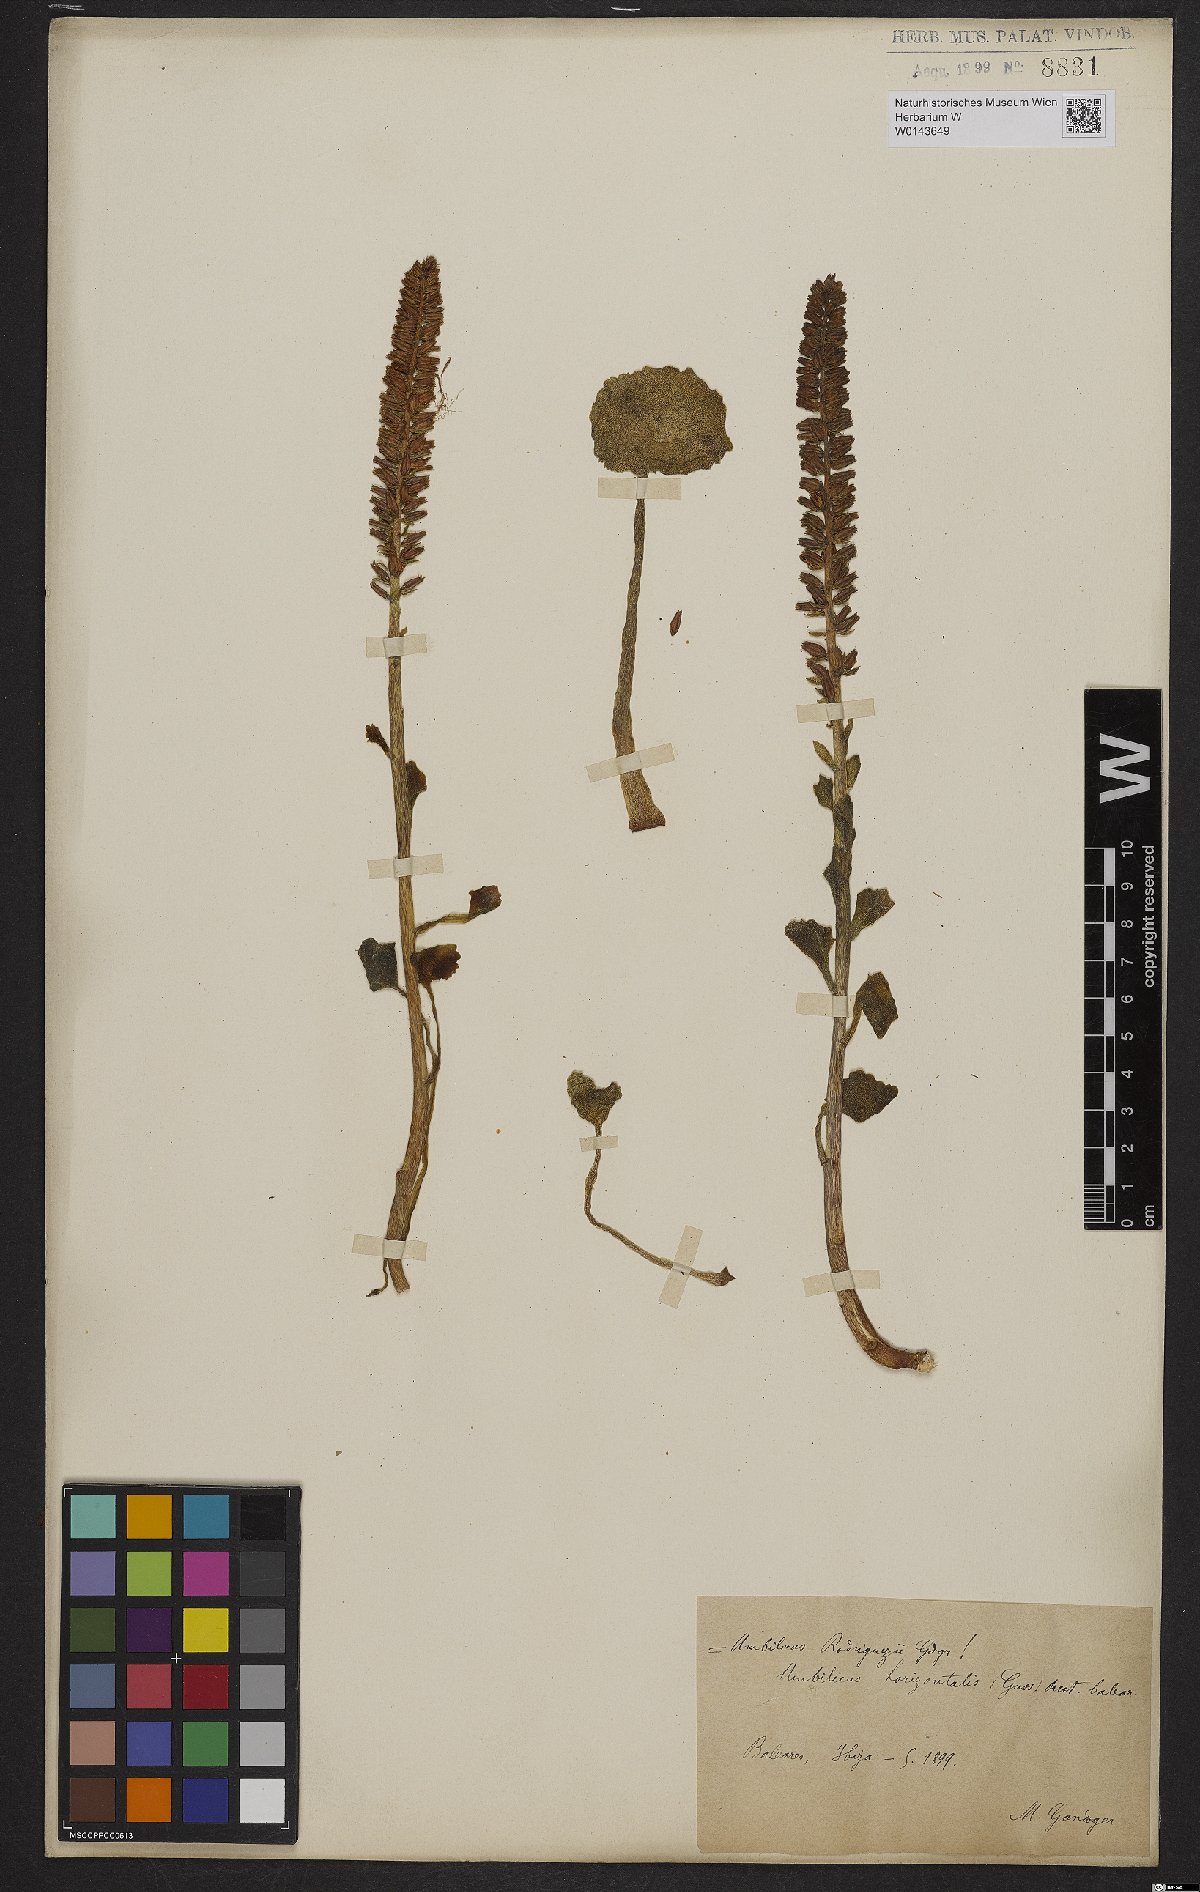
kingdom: Plantae
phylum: Tracheophyta
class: Magnoliopsida
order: Saxifragales
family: Crassulaceae
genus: Umbilicus
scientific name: Umbilicus horizontalis
